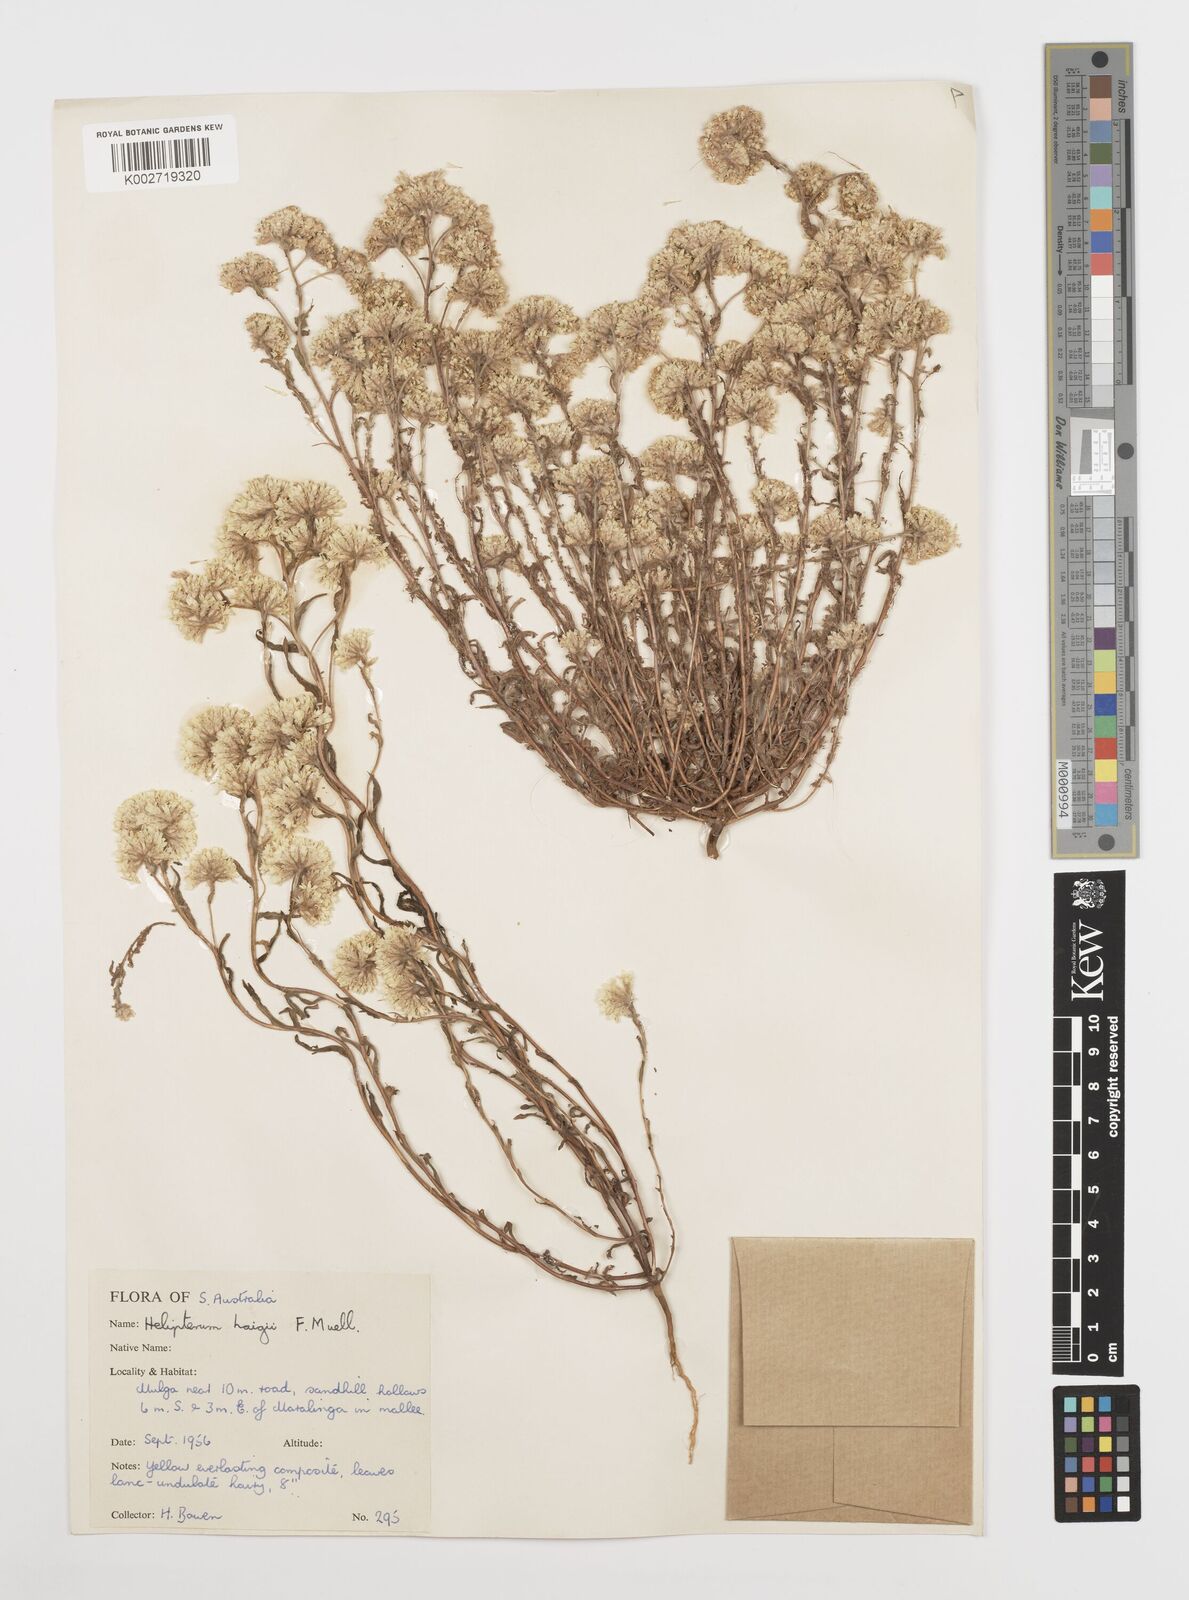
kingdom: Plantae
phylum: Tracheophyta
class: Magnoliopsida
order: Asterales
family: Asteraceae
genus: Rhodanthe
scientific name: Rhodanthe haigii
